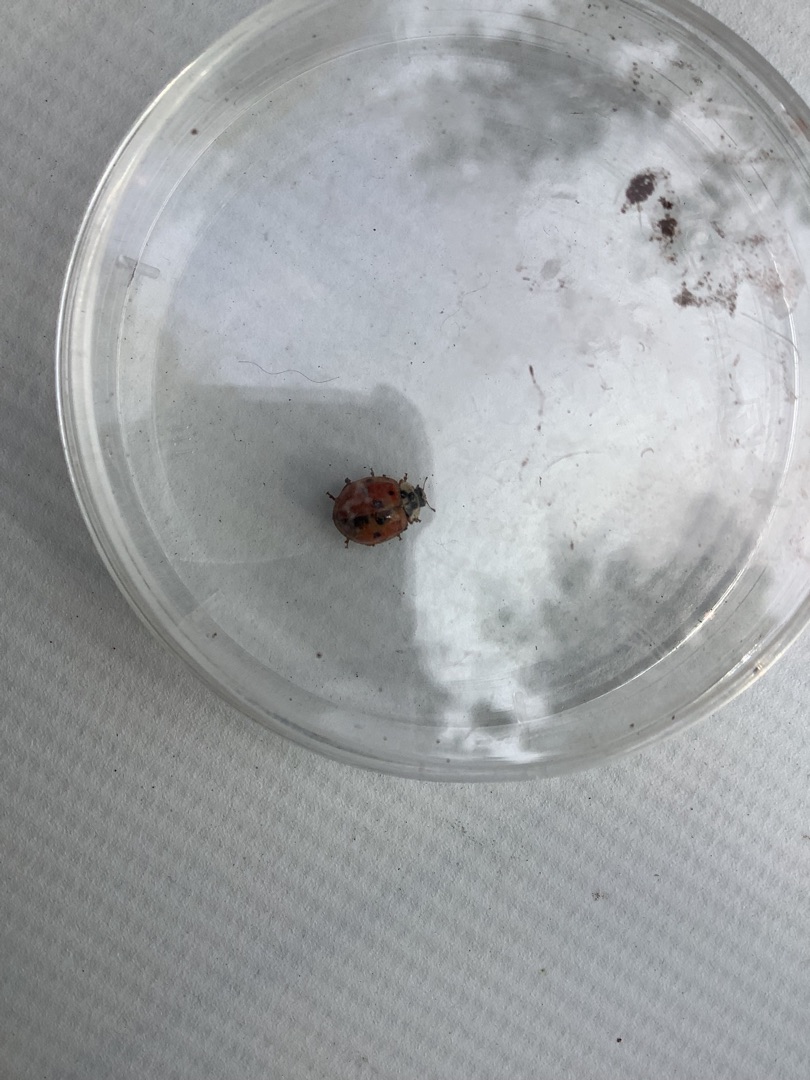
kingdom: Animalia
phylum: Arthropoda
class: Insecta
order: Coleoptera
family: Coccinellidae
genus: Harmonia
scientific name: Harmonia axyridis
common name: Harlekinmariehøne
